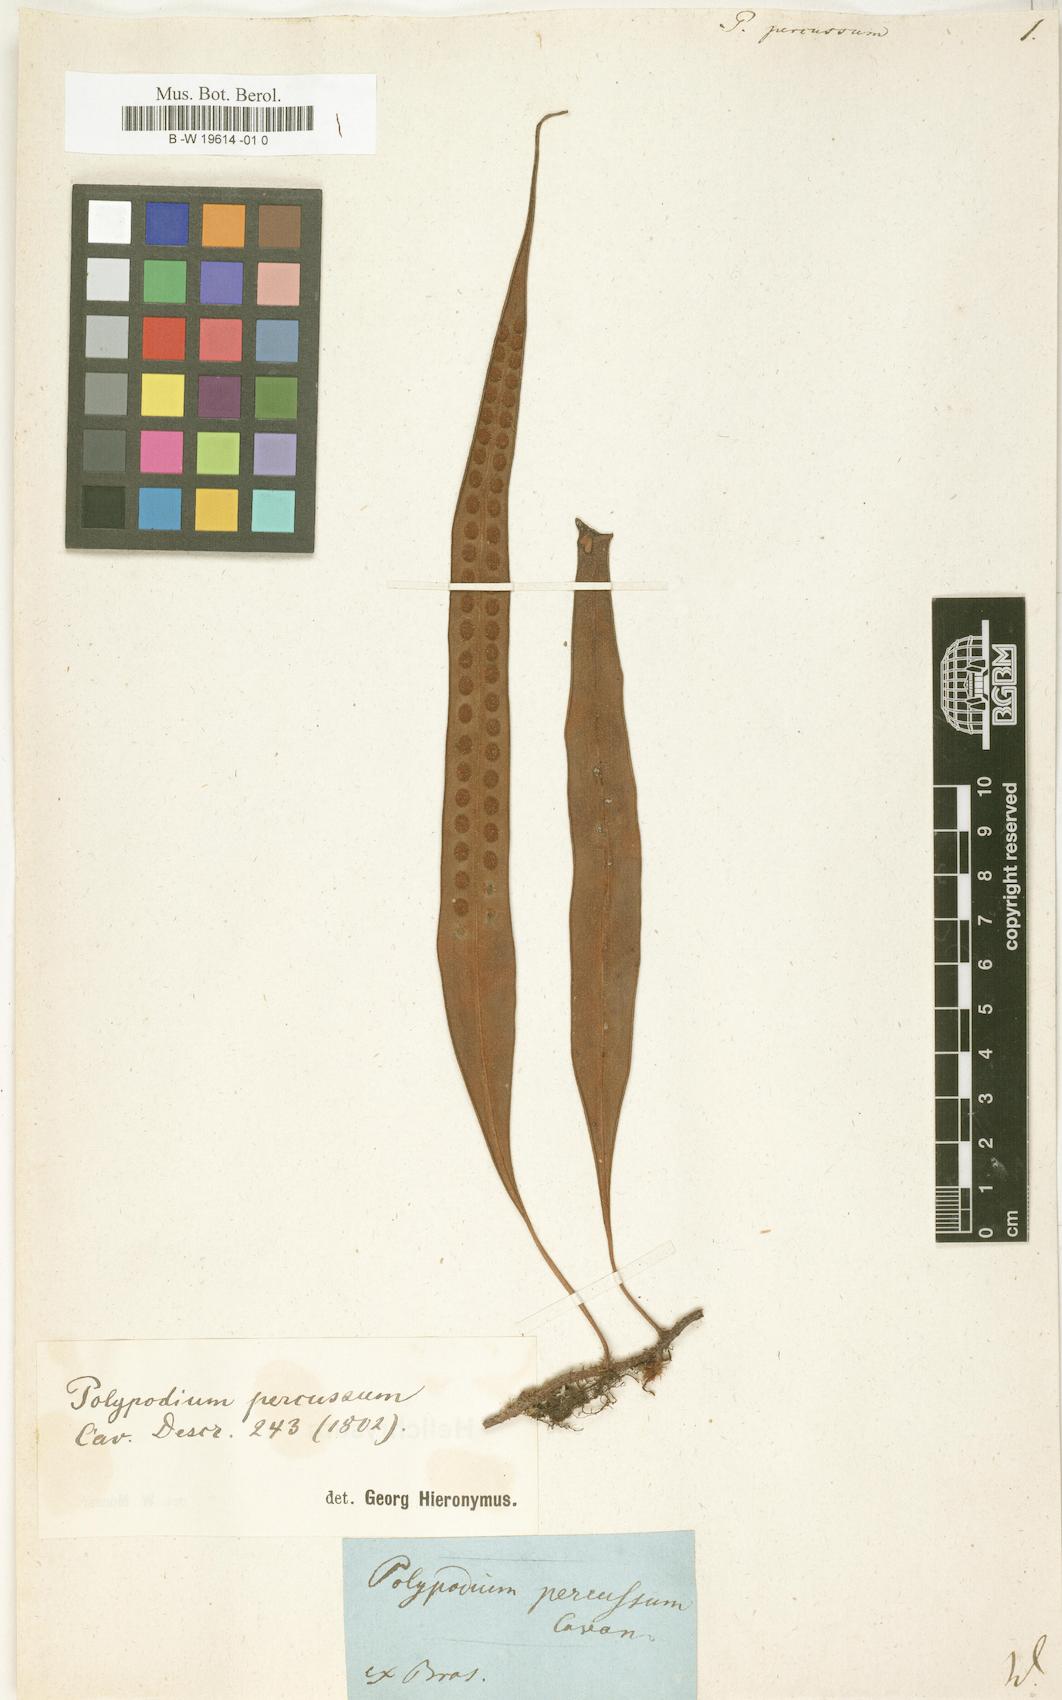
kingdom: Plantae
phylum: Tracheophyta
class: Polypodiopsida
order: Polypodiales
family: Polypodiaceae
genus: Microgramma
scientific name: Microgramma percussa
